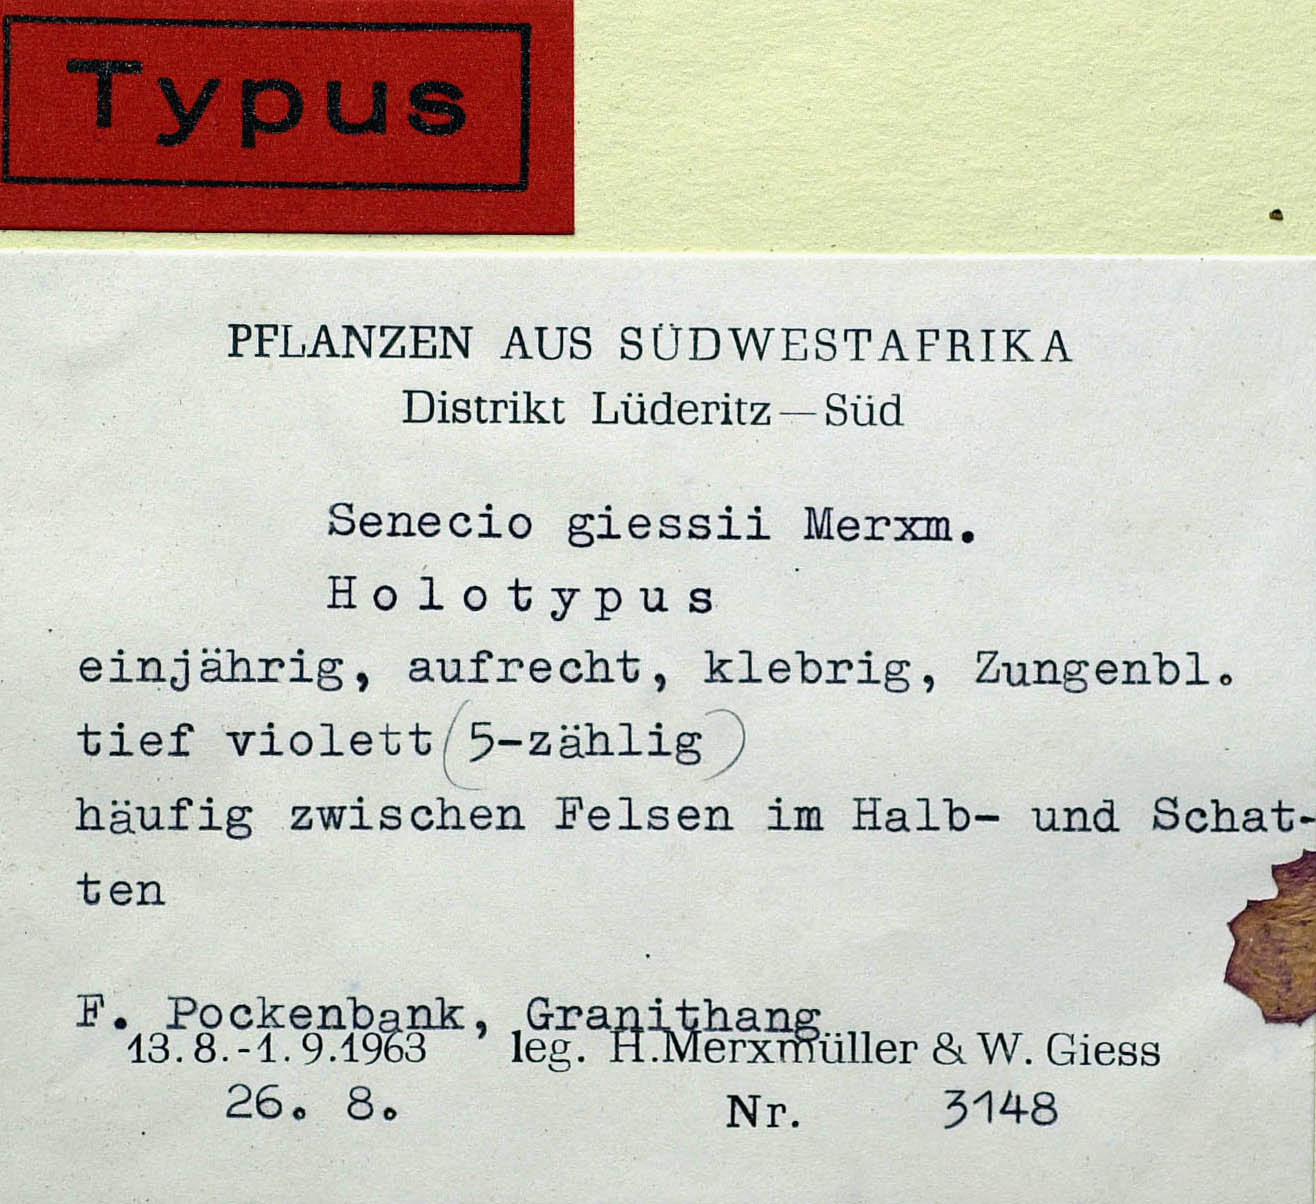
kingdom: Plantae
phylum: Tracheophyta
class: Magnoliopsida
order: Asterales
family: Asteraceae
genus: Senecio
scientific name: Senecio giessii
